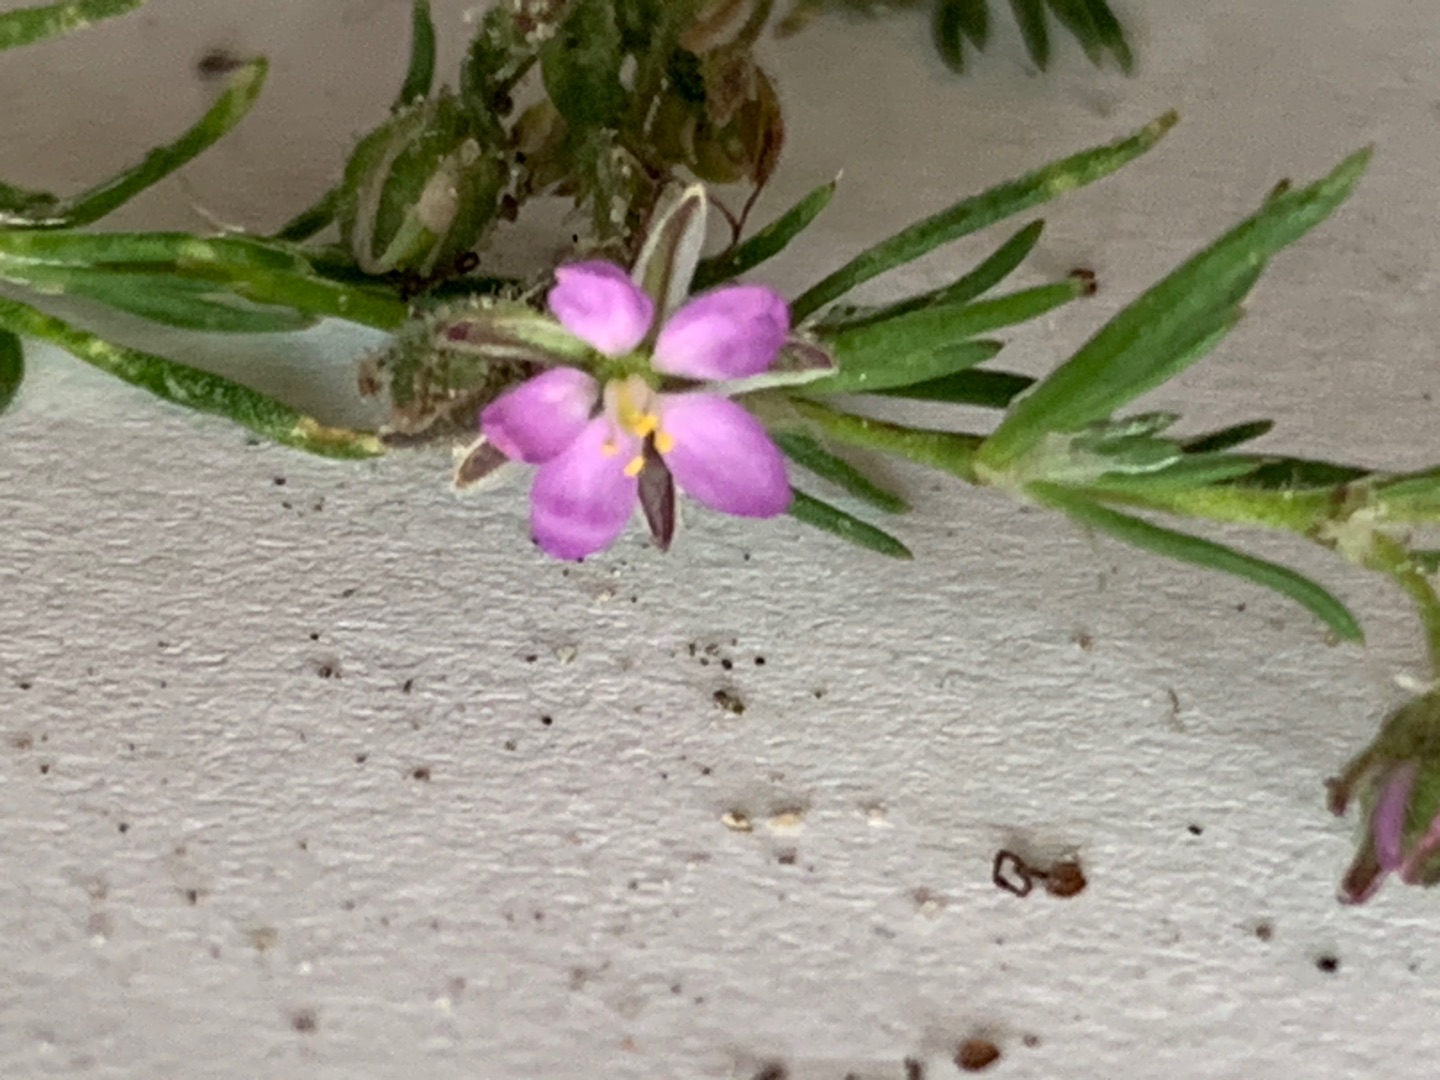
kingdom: Plantae
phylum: Tracheophyta
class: Magnoliopsida
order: Caryophyllales
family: Caryophyllaceae
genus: Spergularia
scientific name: Spergularia rubra
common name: Mark-hindeknæ
